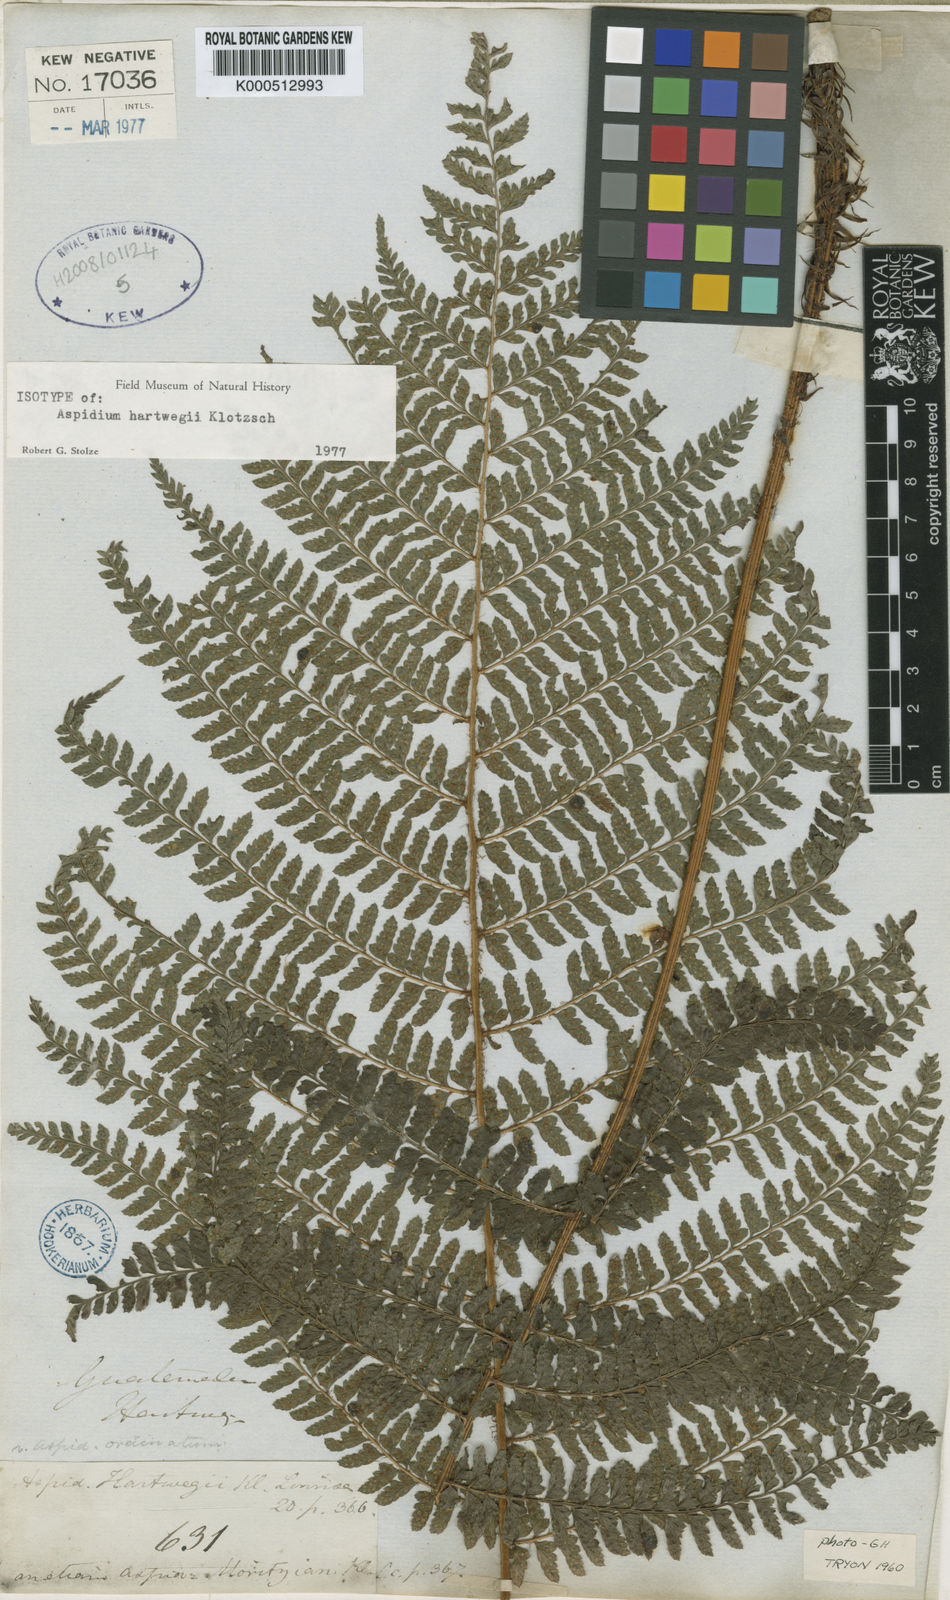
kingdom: Plantae
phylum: Tracheophyta
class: Polypodiopsida
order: Polypodiales
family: Dryopteridaceae
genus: Polystichum
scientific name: Polystichum
